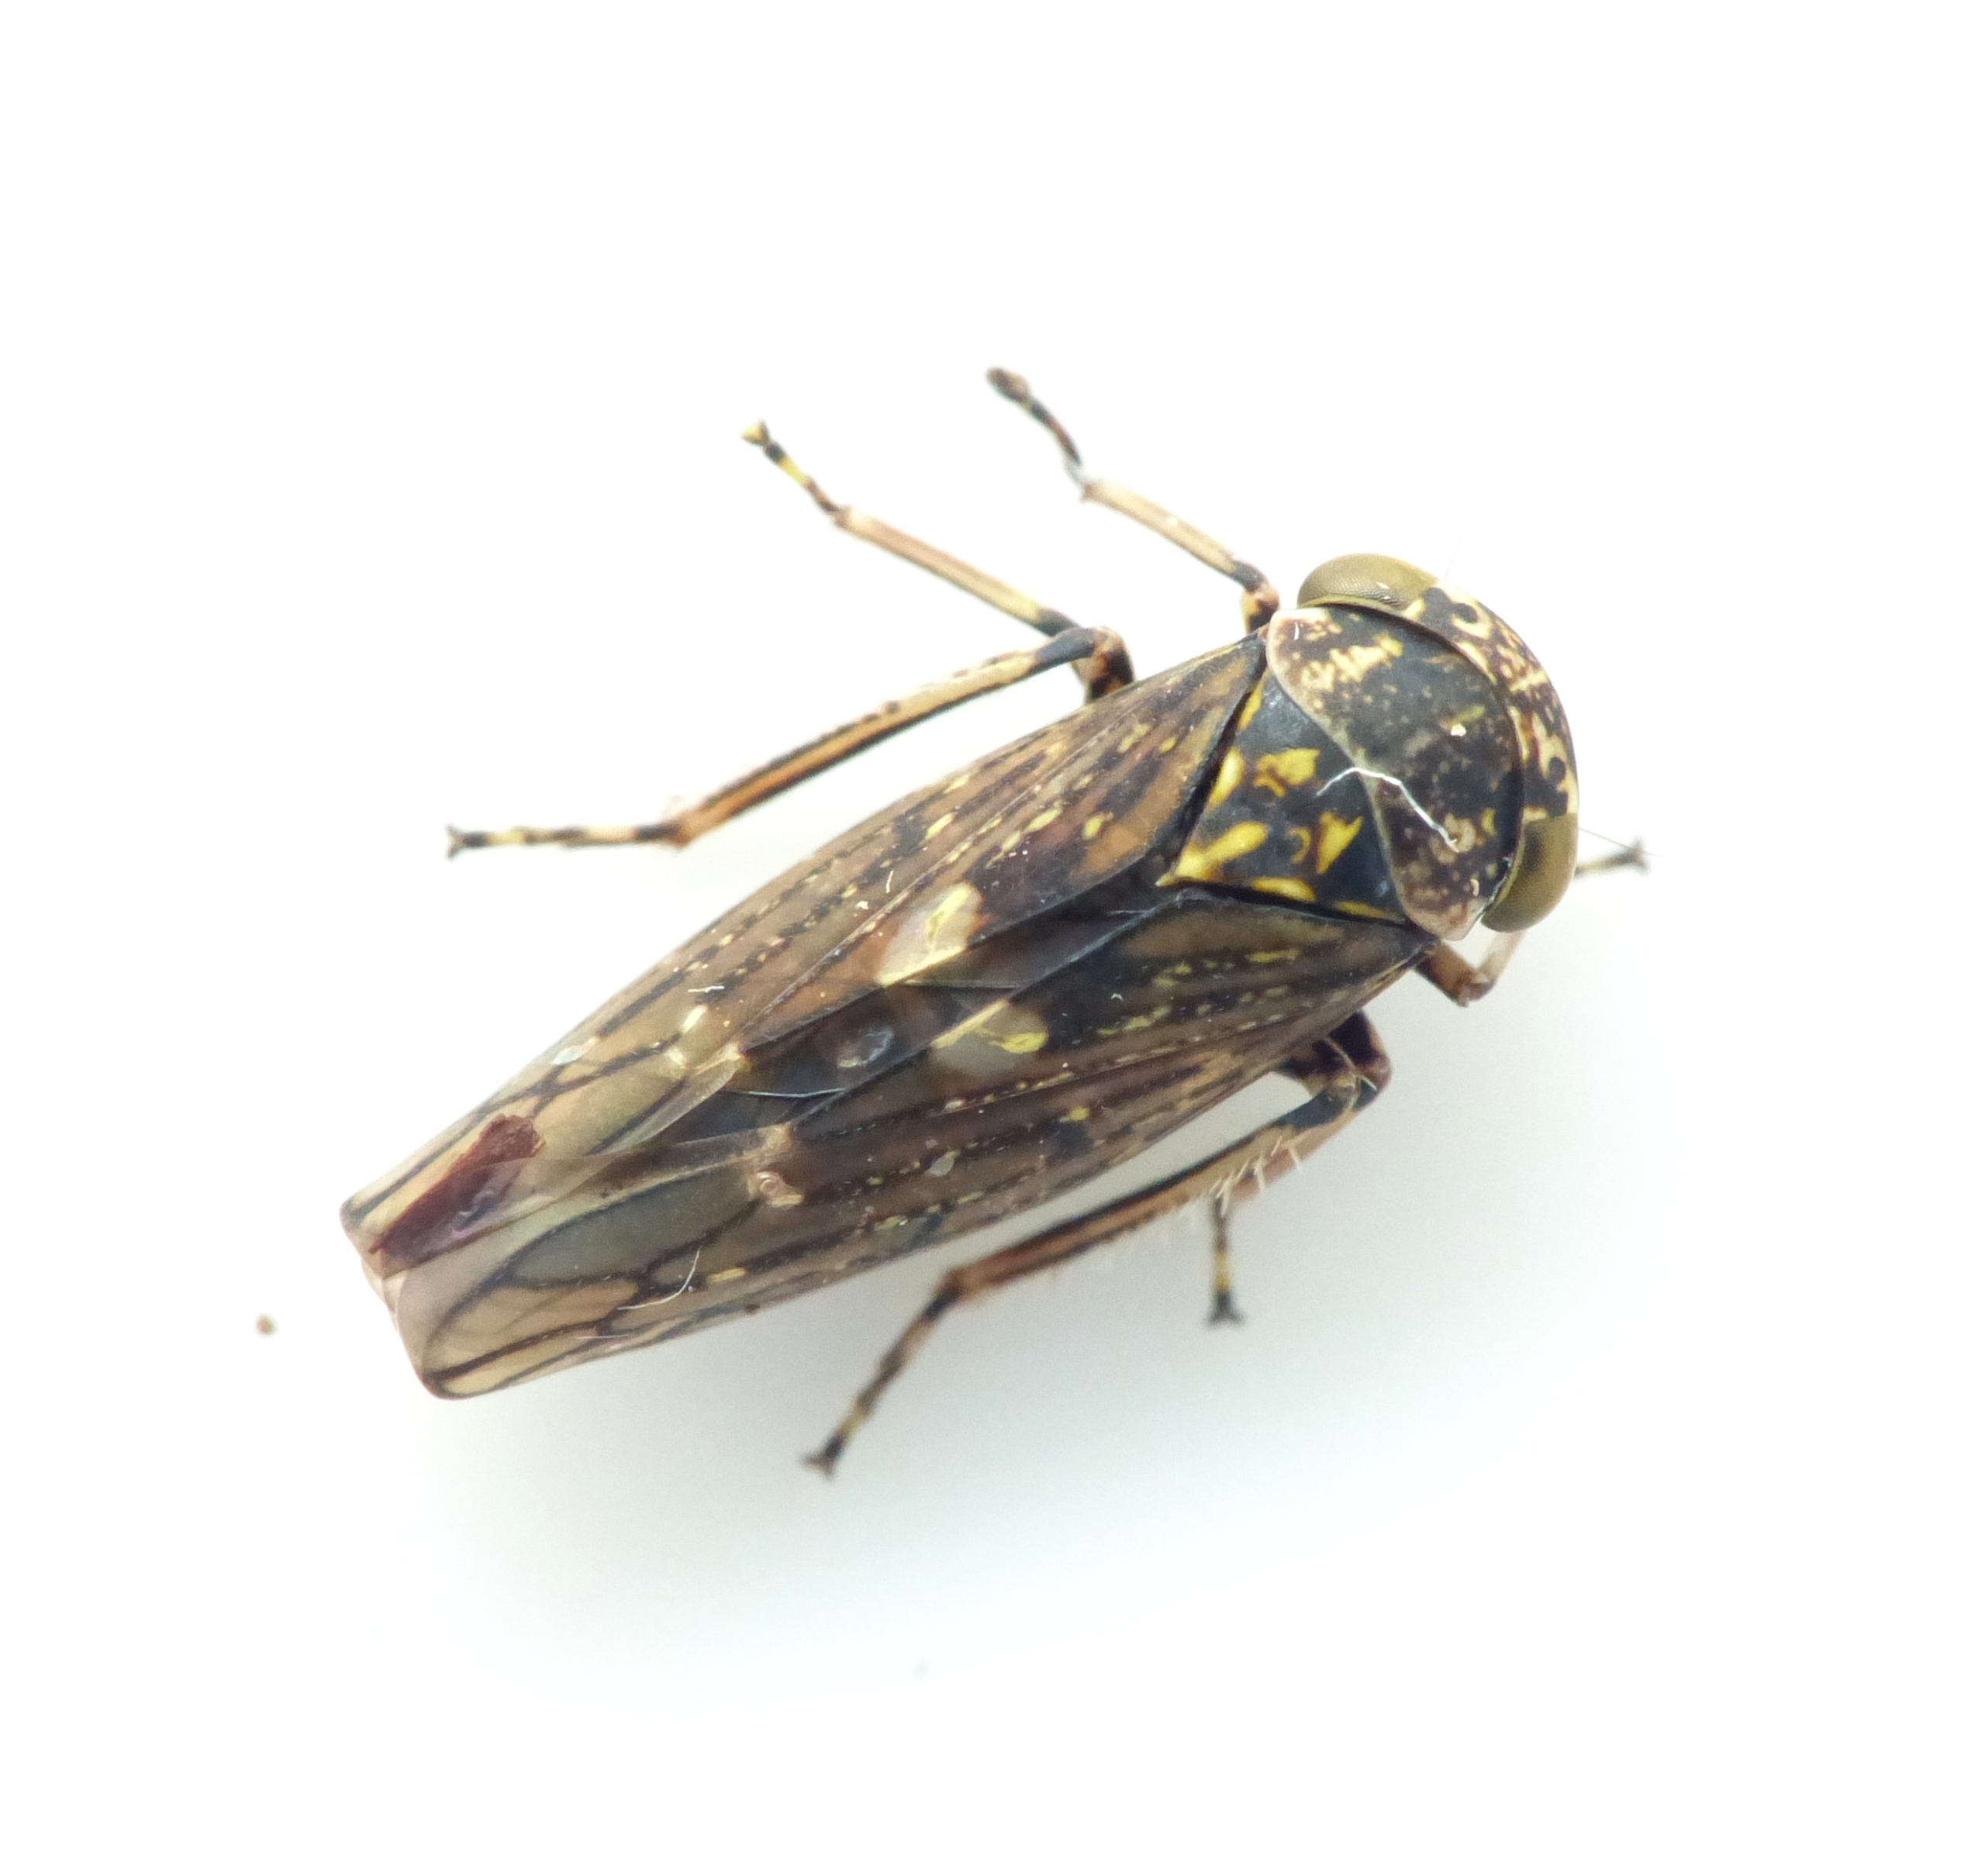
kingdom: Animalia
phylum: Arthropoda
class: Insecta
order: Hemiptera
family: Cicadellidae
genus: Acericerus
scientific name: Acericerus heydenii
